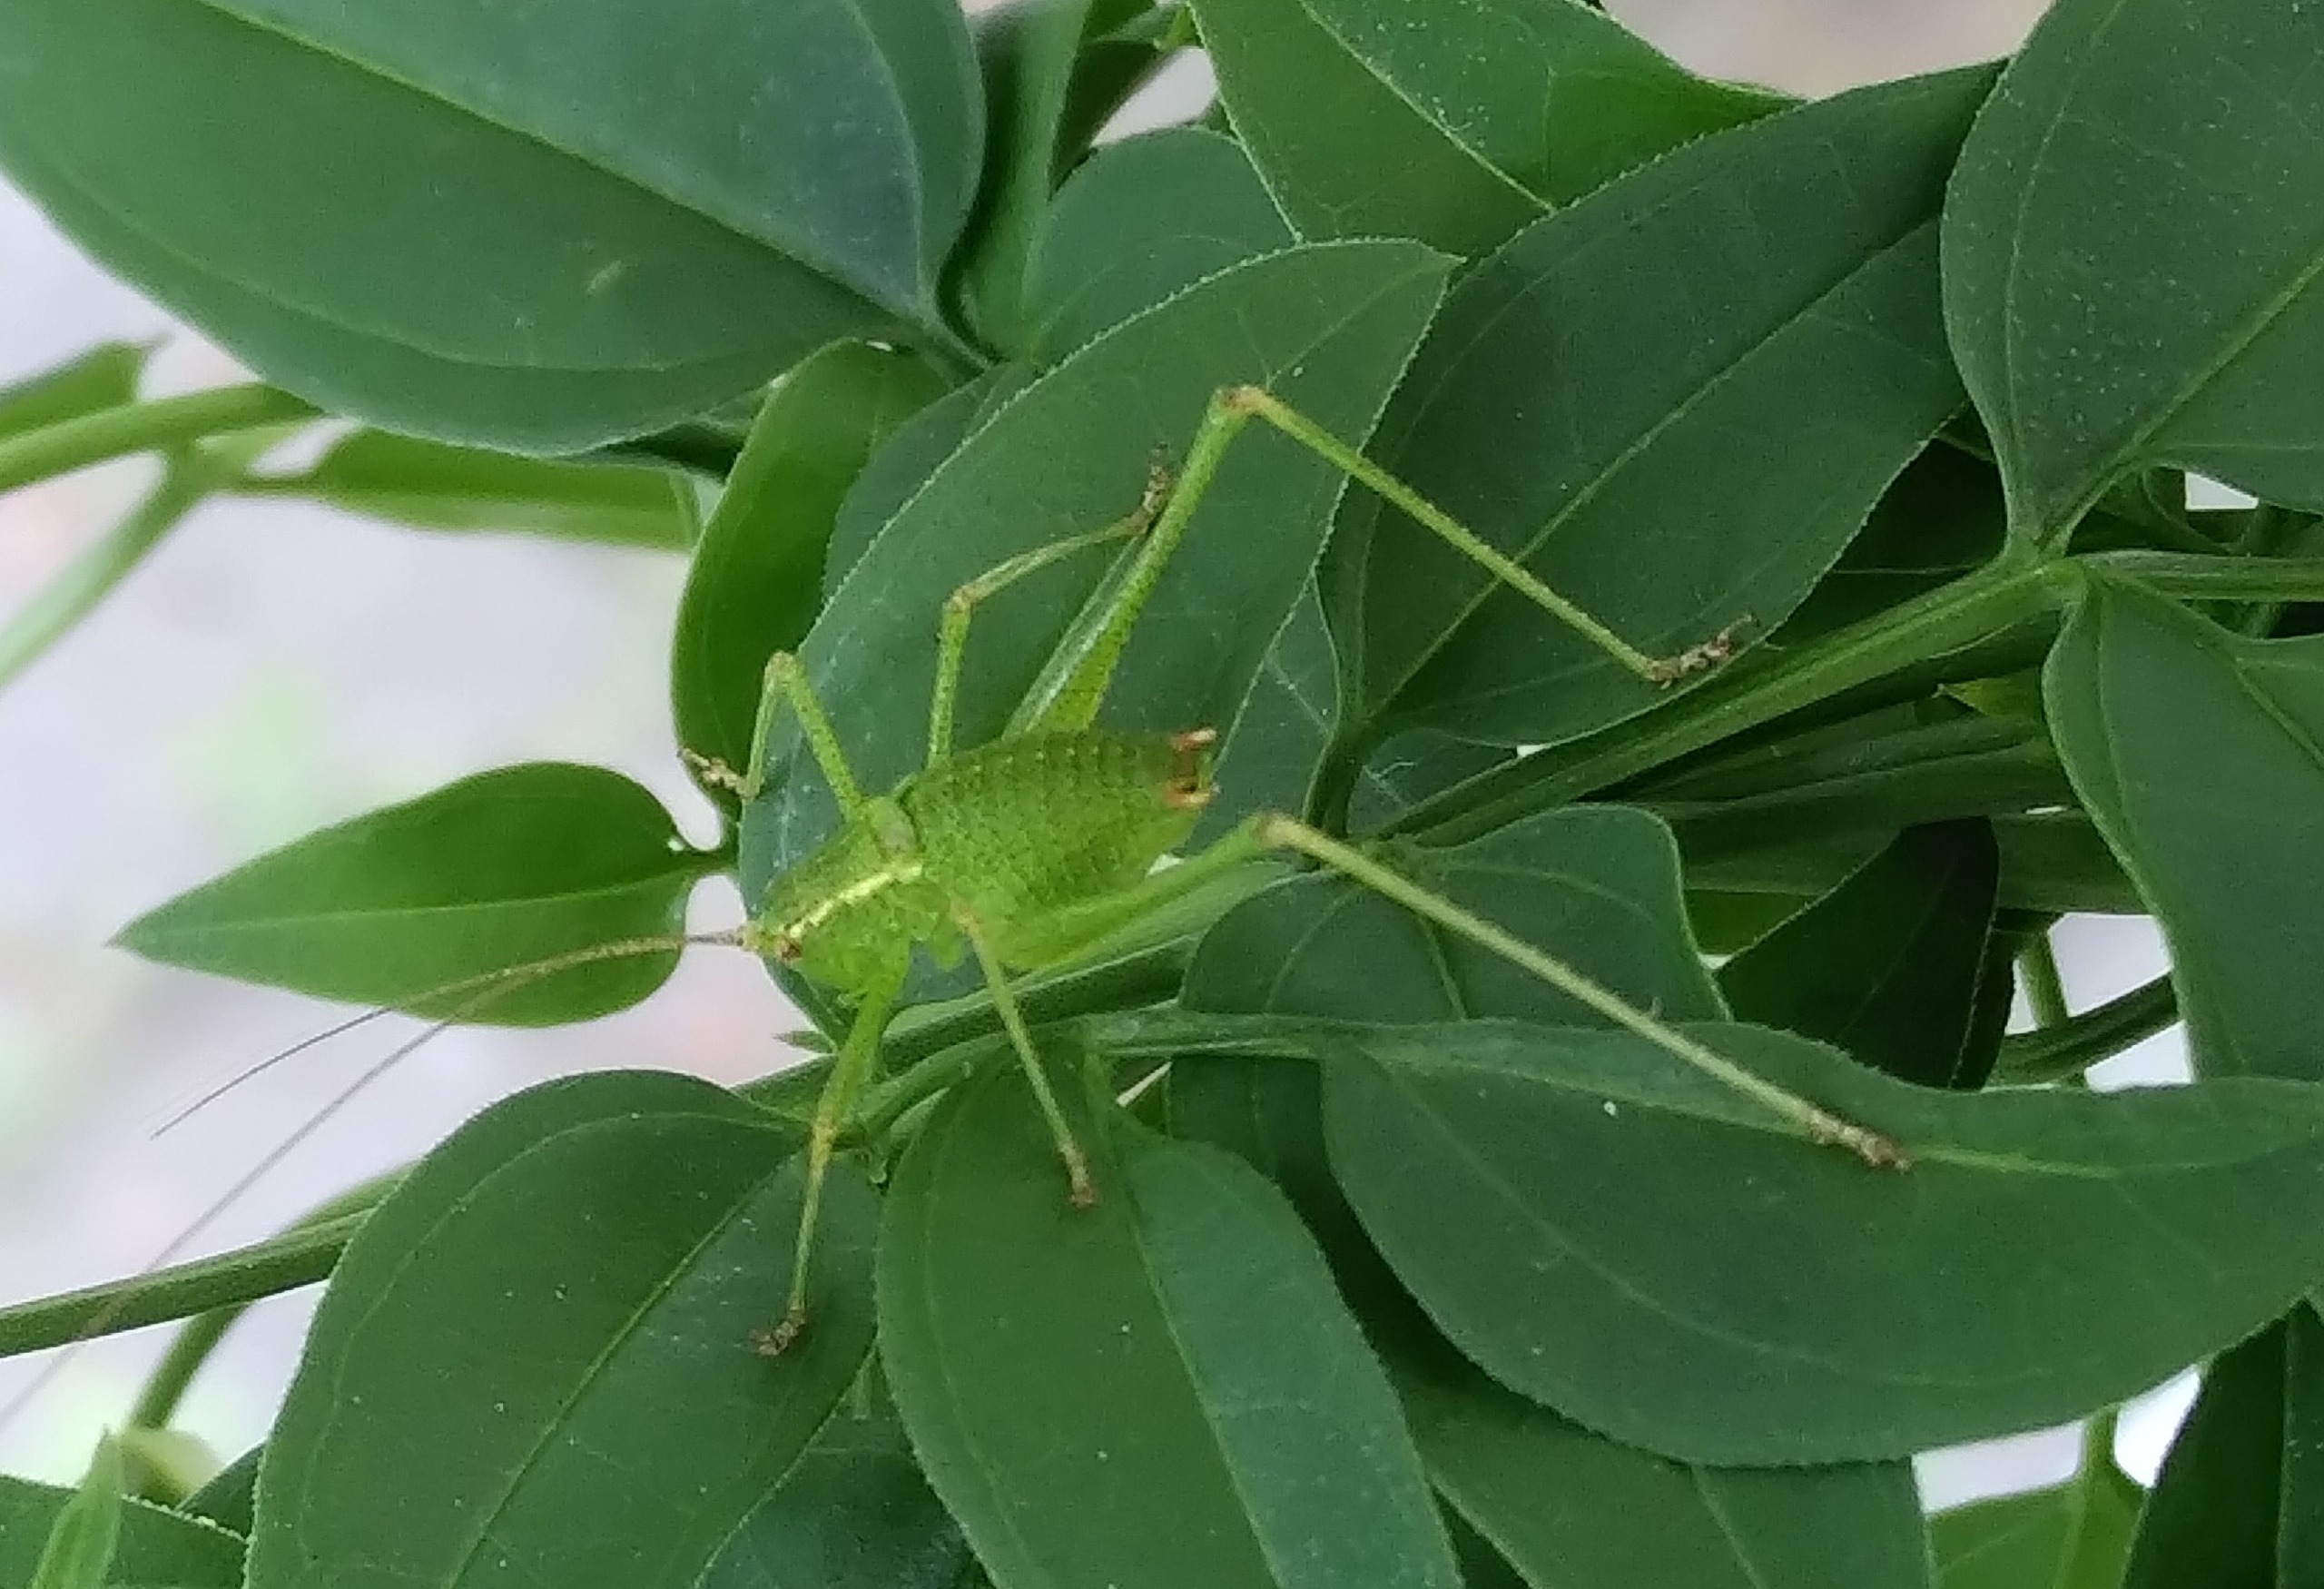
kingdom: Animalia
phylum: Arthropoda
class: Insecta
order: Orthoptera
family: Tettigoniidae
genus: Leptophyes
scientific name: Leptophyes punctatissima
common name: Krumknivgræshoppe
